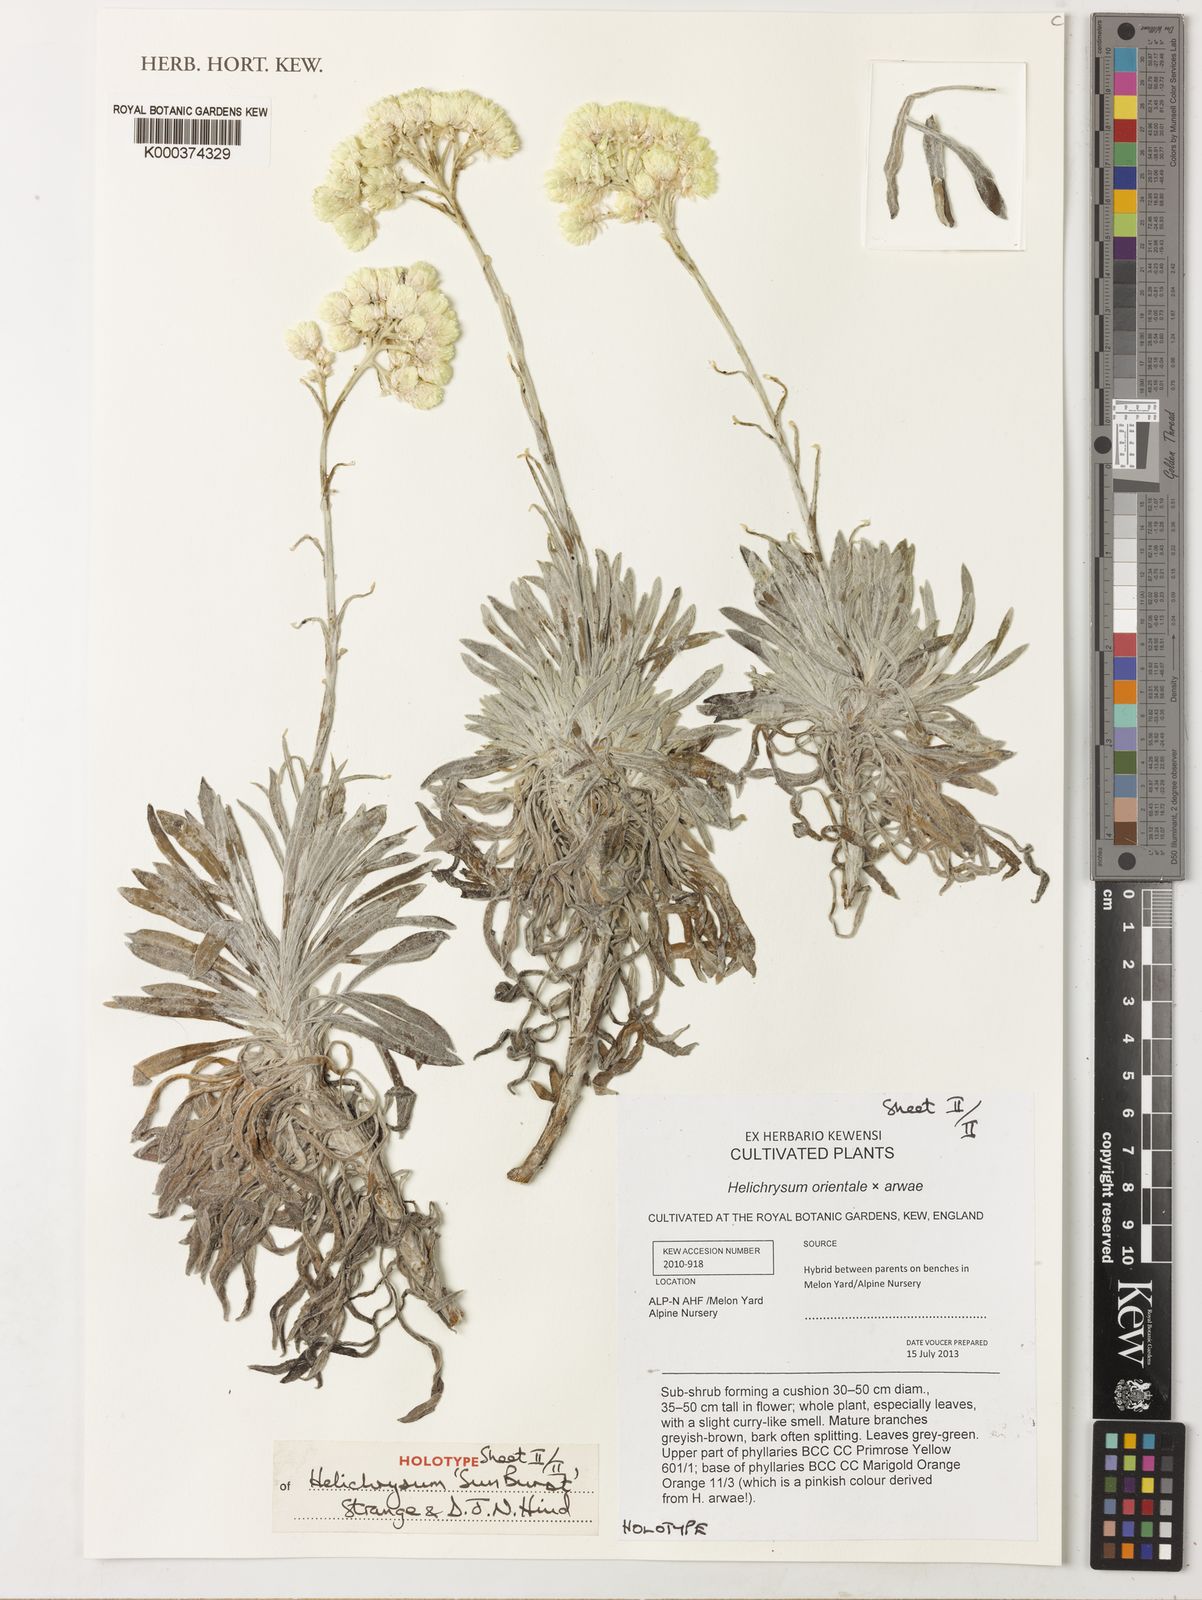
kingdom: Plantae
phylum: Tracheophyta
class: Magnoliopsida
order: Asterales
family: Asteraceae
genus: Helichrysum
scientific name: Helichrysum
